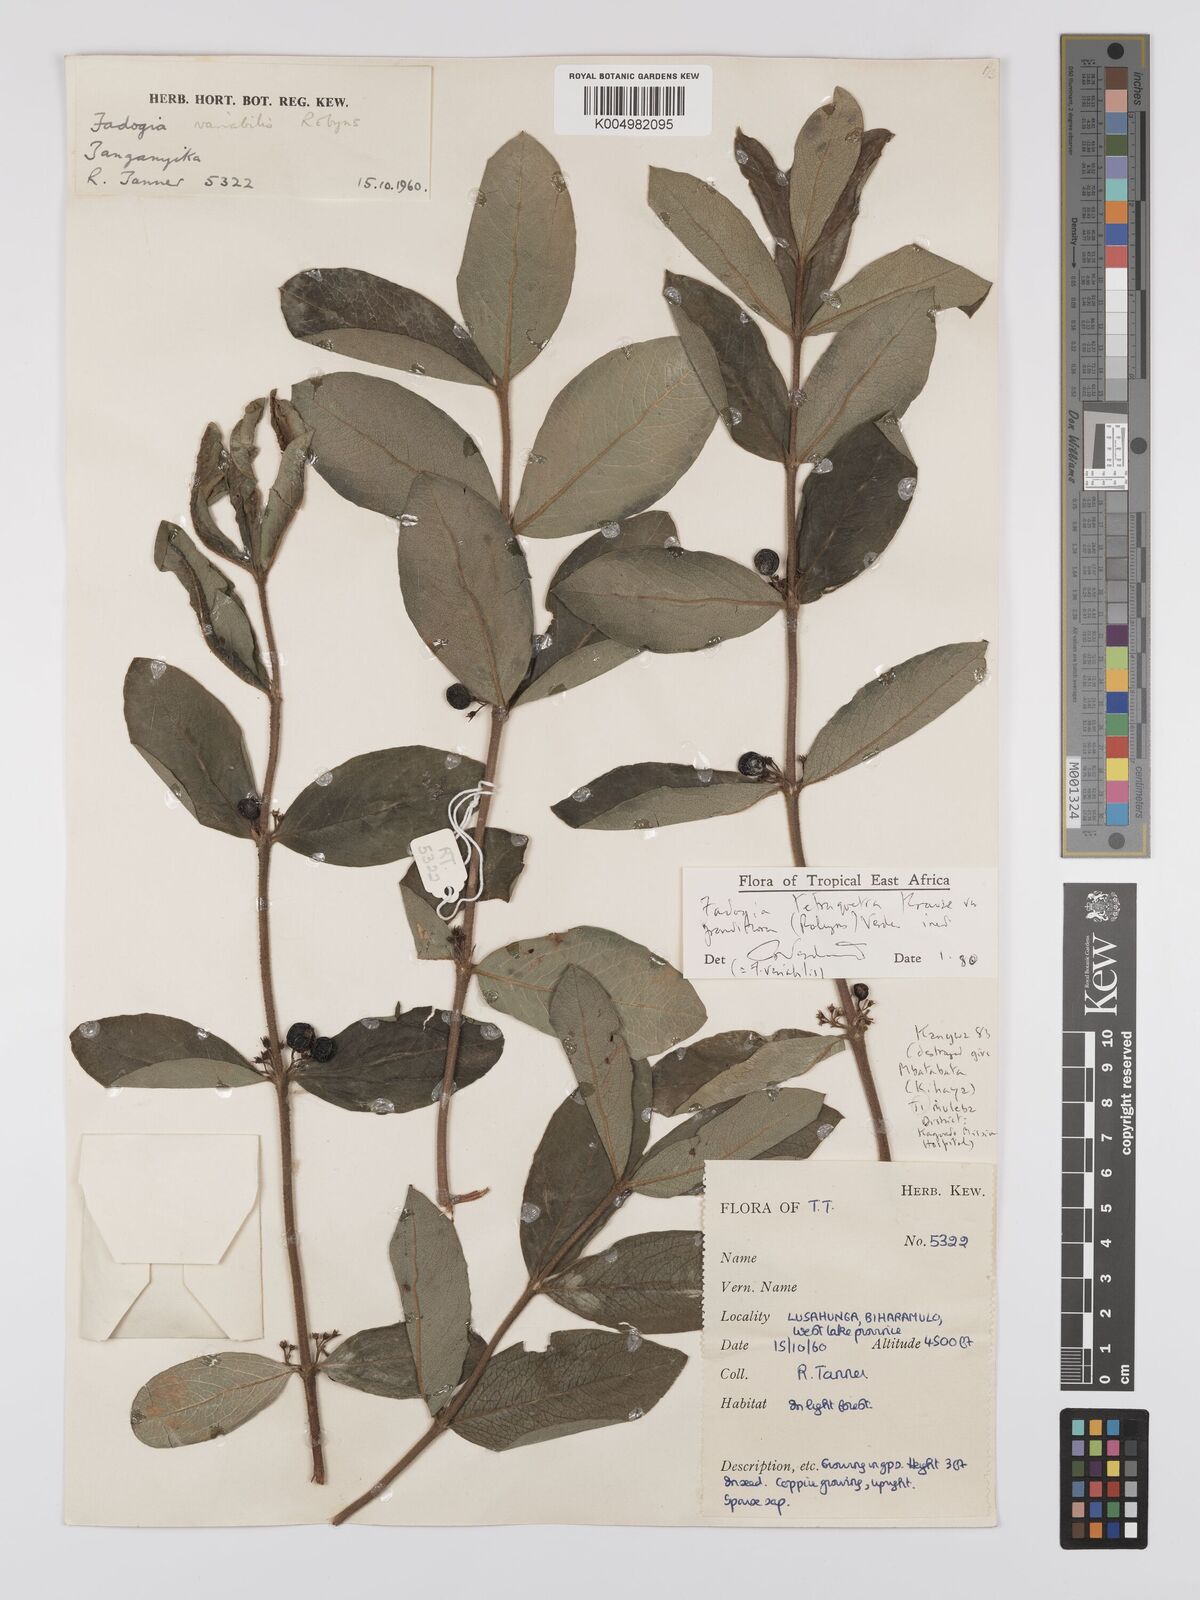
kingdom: Plantae
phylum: Tracheophyta
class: Magnoliopsida
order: Gentianales
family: Rubiaceae
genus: Fadogia
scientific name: Fadogia tetraquetra
